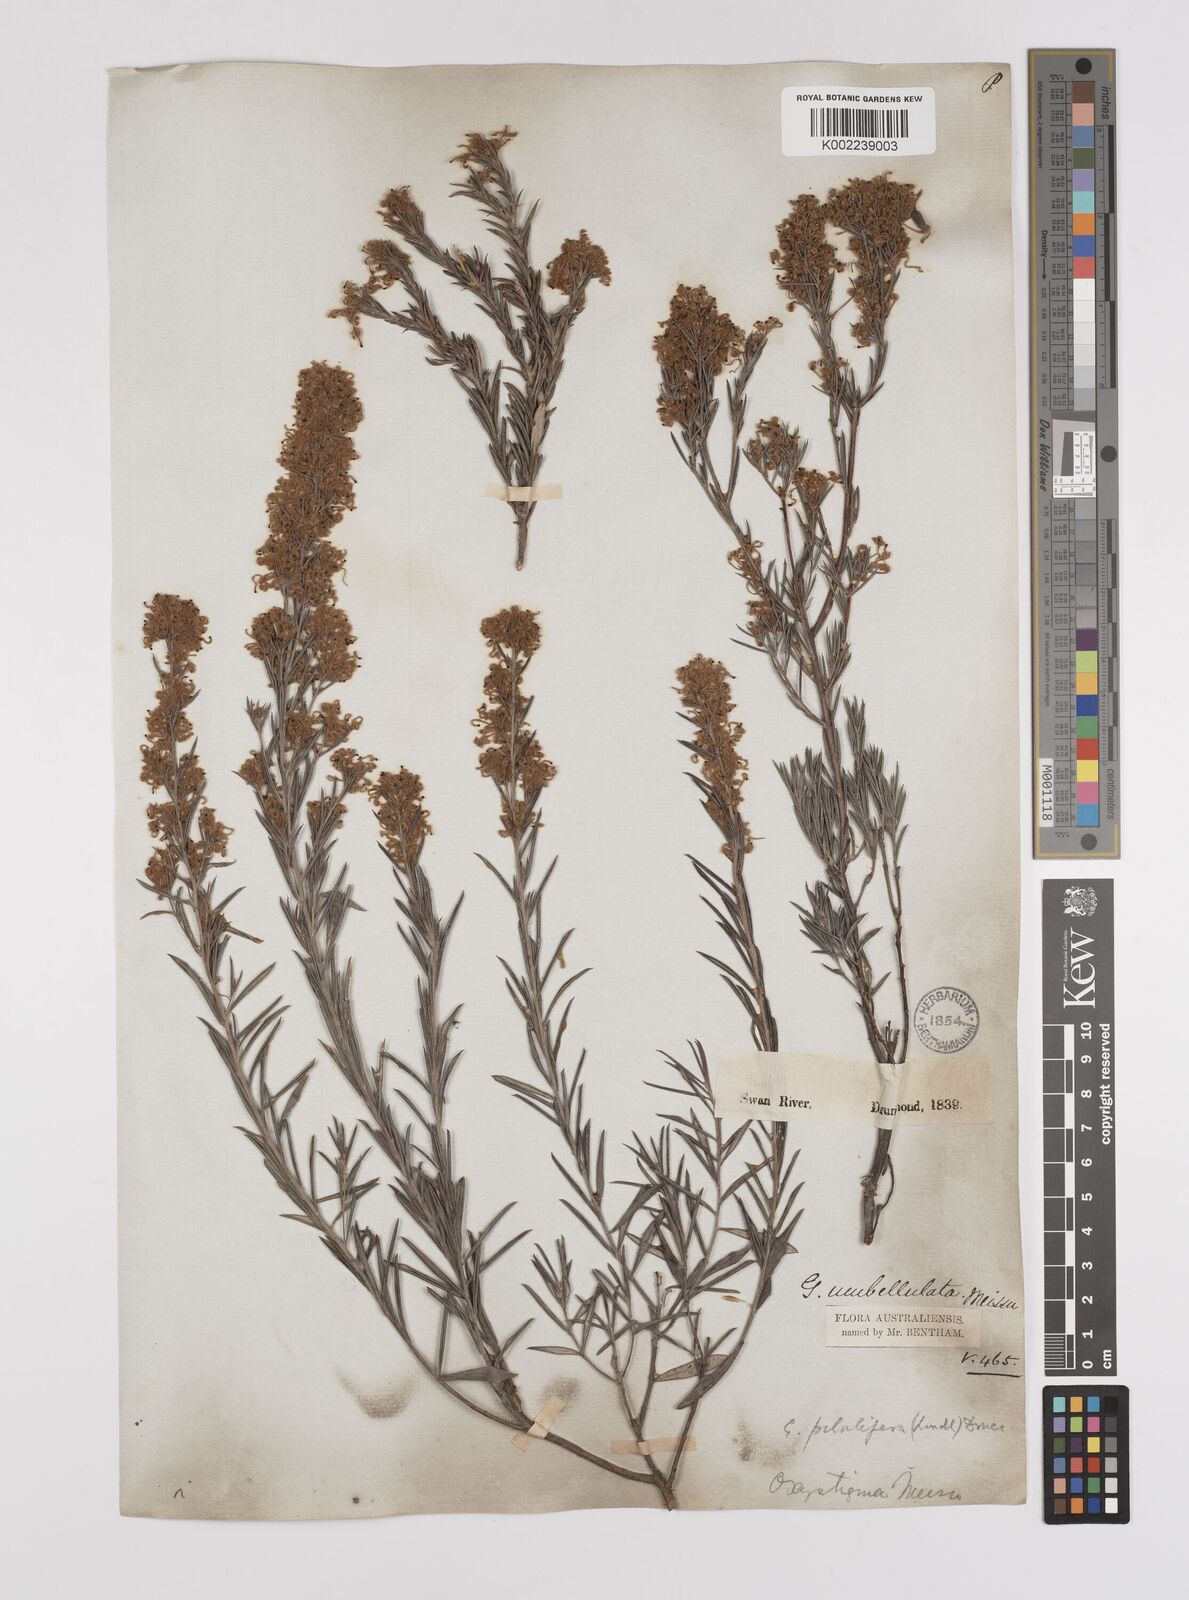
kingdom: Plantae
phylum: Tracheophyta
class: Magnoliopsida
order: Proteales
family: Proteaceae
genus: Grevillea
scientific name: Grevillea pilulifera
